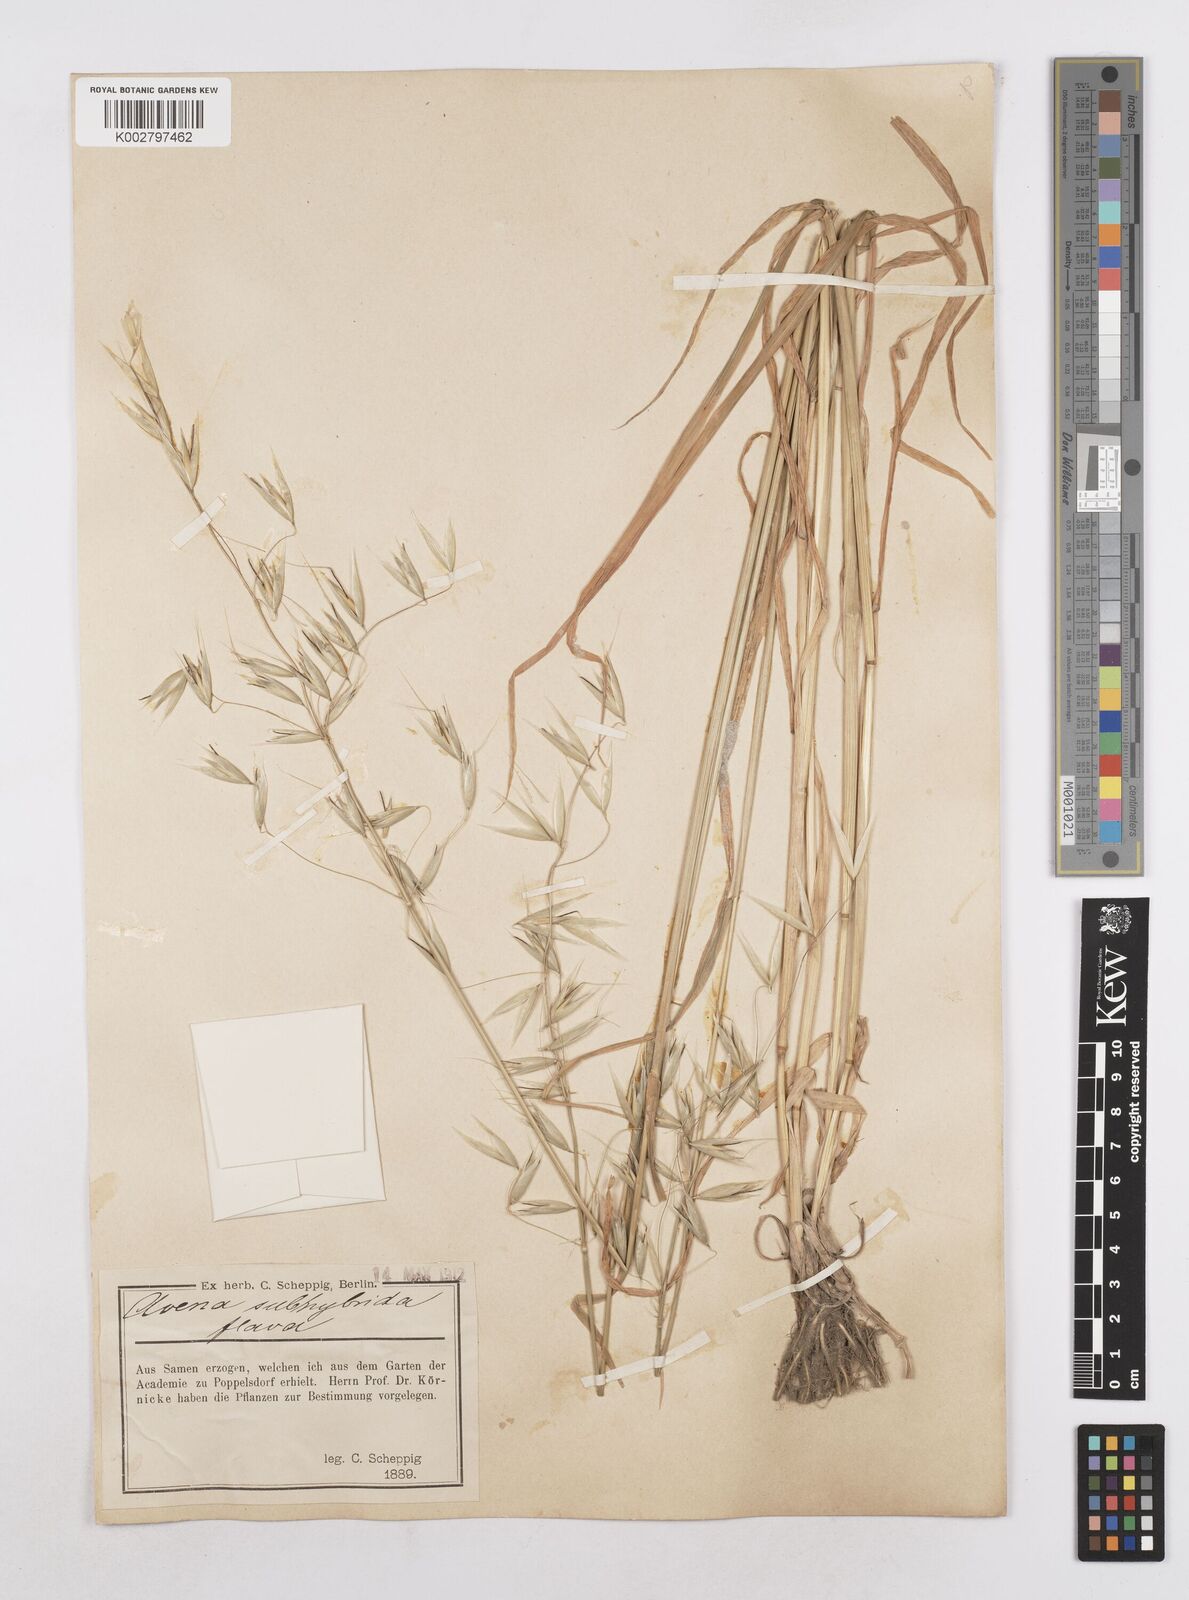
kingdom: Plantae
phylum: Tracheophyta
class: Liliopsida
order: Poales
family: Poaceae
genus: Avena
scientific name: Avena fatua
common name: Wild oat
